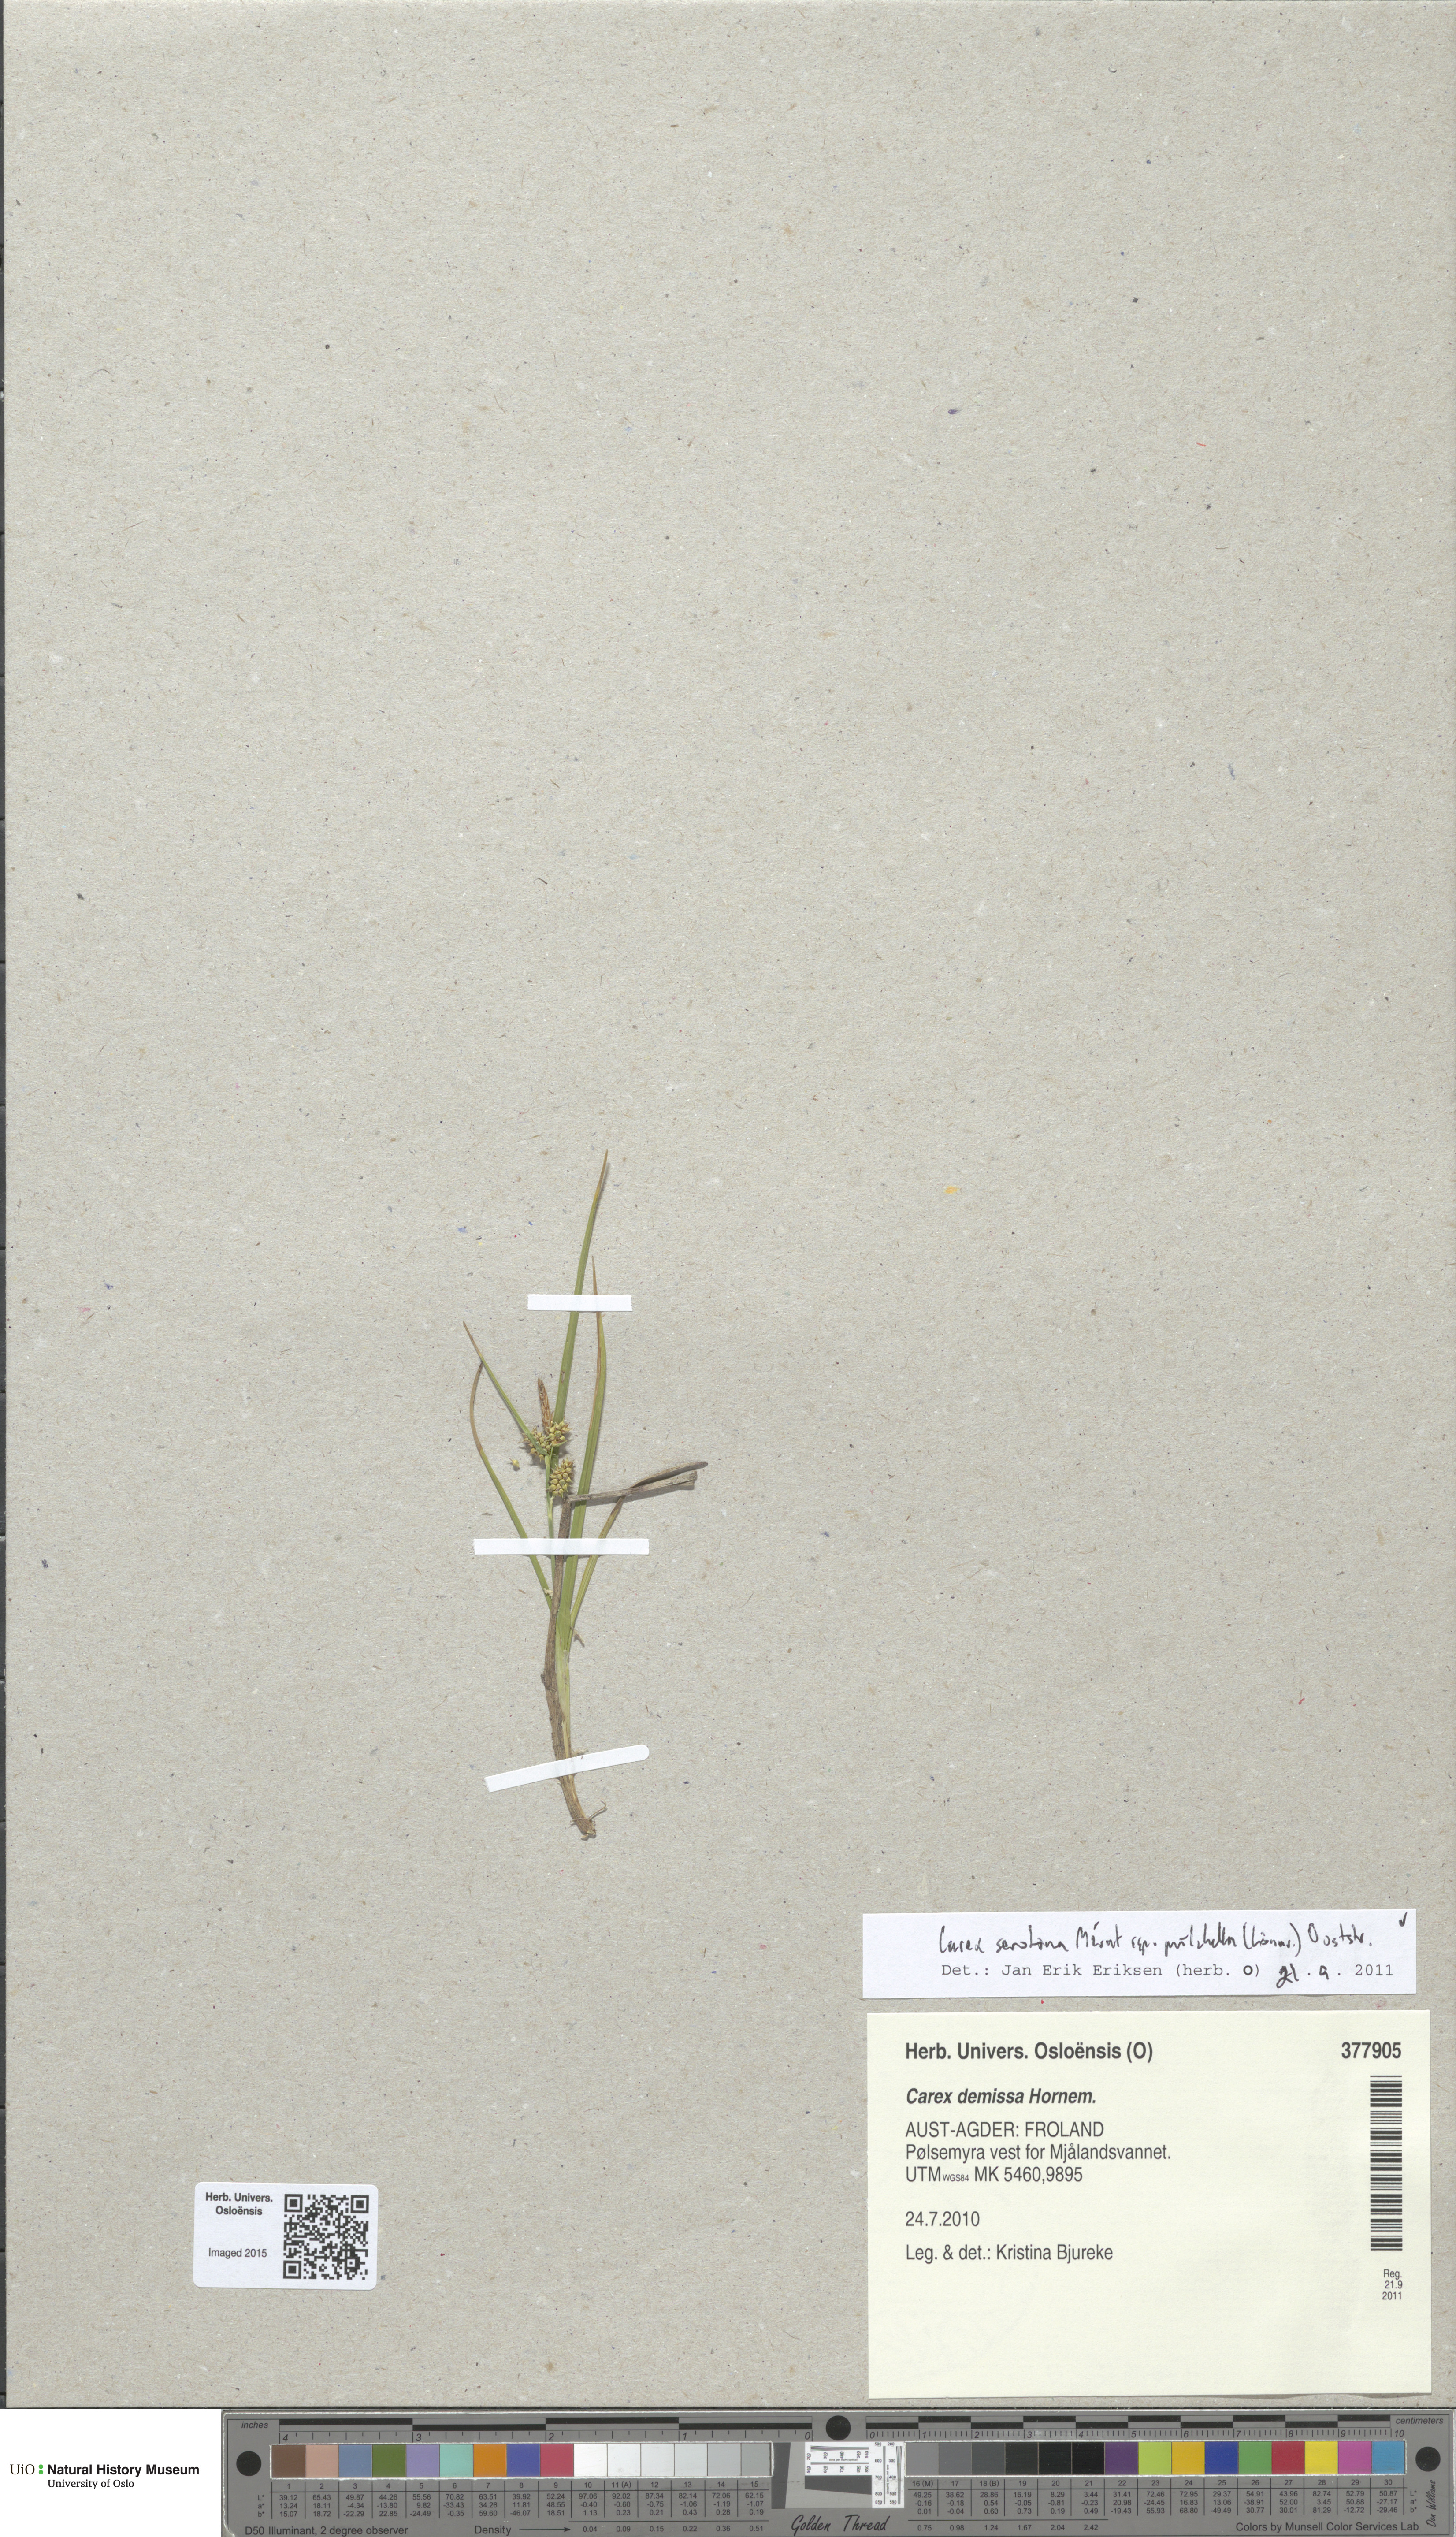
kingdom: Plantae
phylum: Tracheophyta
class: Liliopsida
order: Poales
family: Cyperaceae
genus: Carex
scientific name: Carex oederi
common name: Common & small-fruited yellow-sedge
